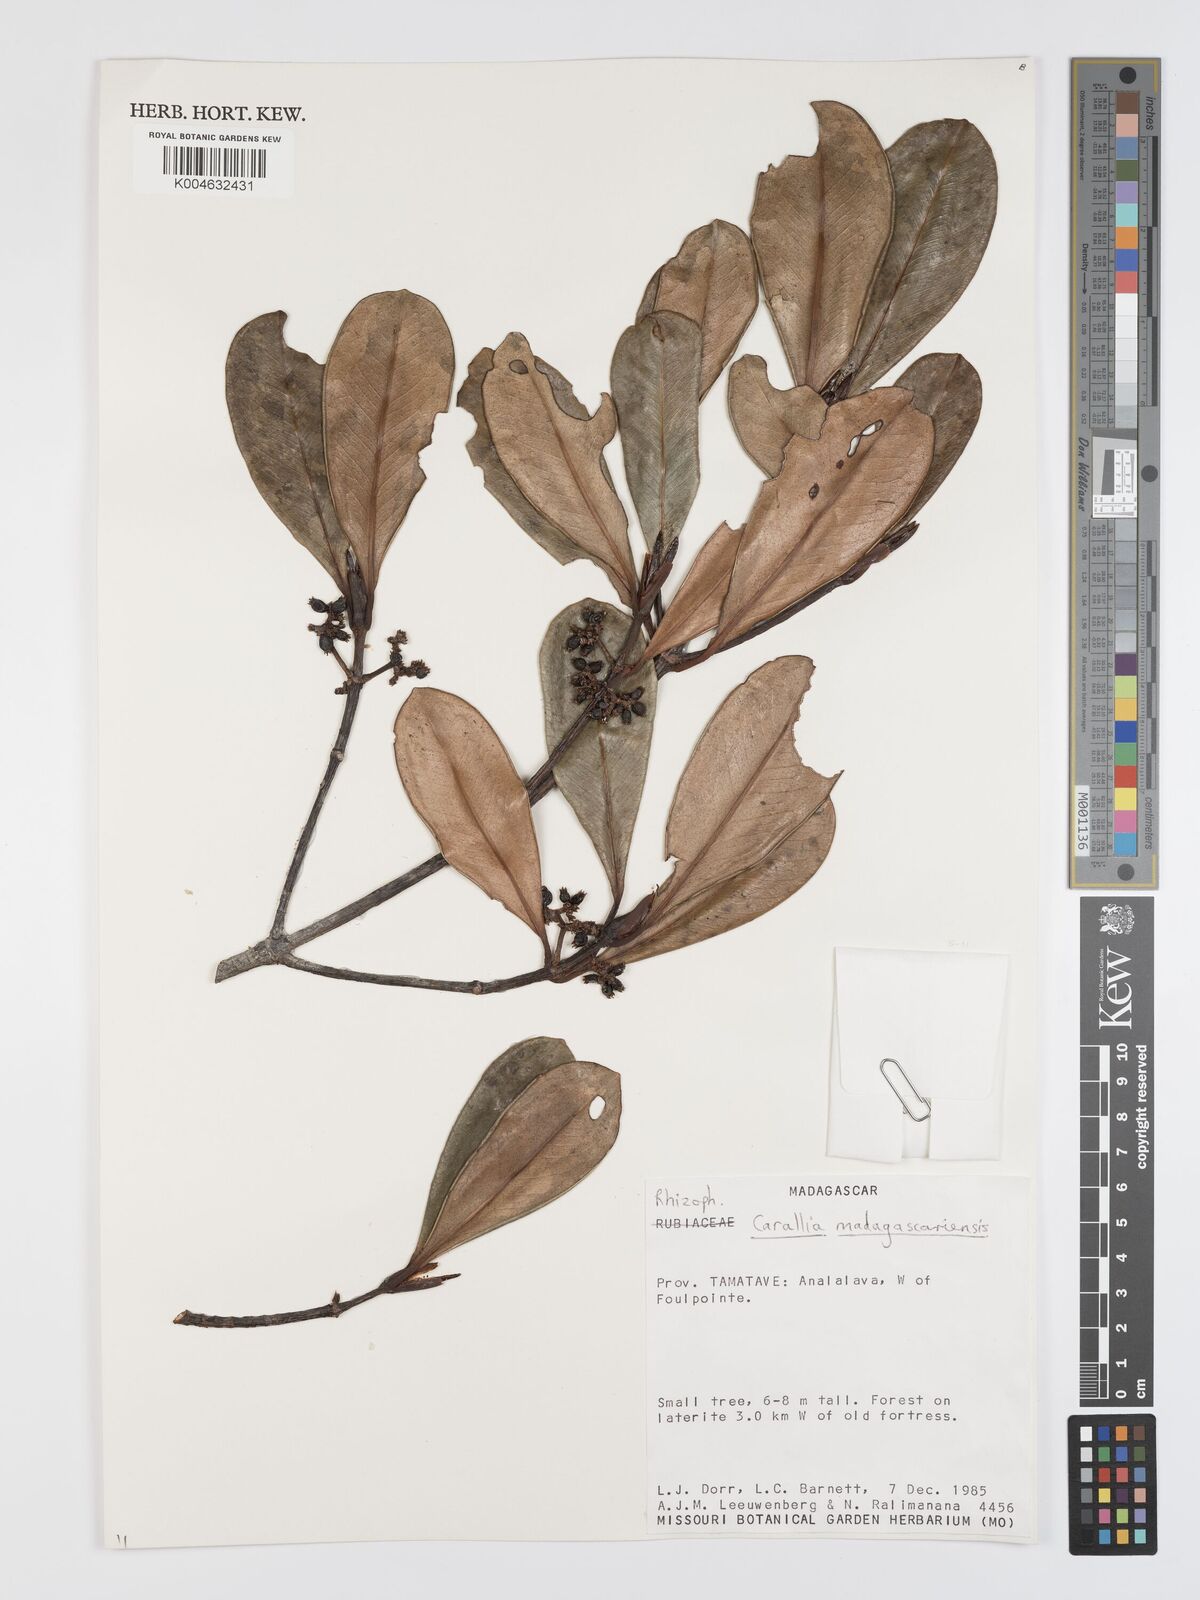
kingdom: Plantae
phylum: Tracheophyta
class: Magnoliopsida
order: Malpighiales
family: Rhizophoraceae
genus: Carallia
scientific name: Carallia brachiata
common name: Carallawood
